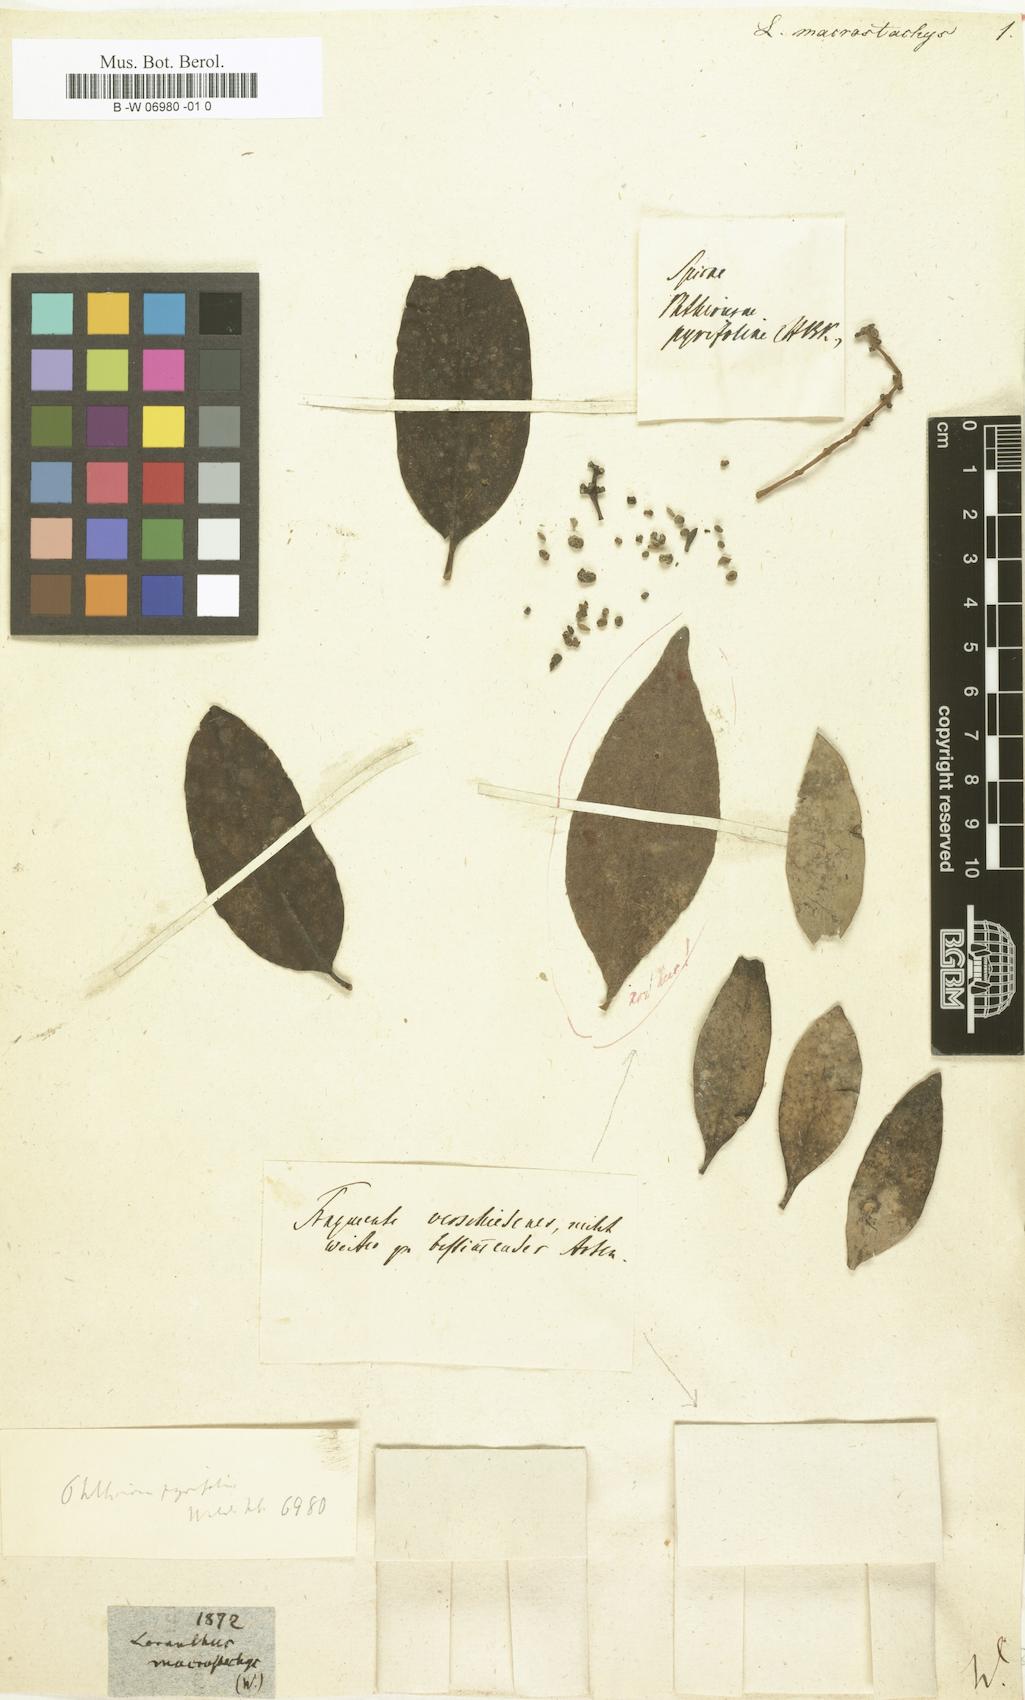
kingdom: Plantae
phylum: Tracheophyta
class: Magnoliopsida
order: Santalales
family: Loranthaceae
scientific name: Loranthaceae
